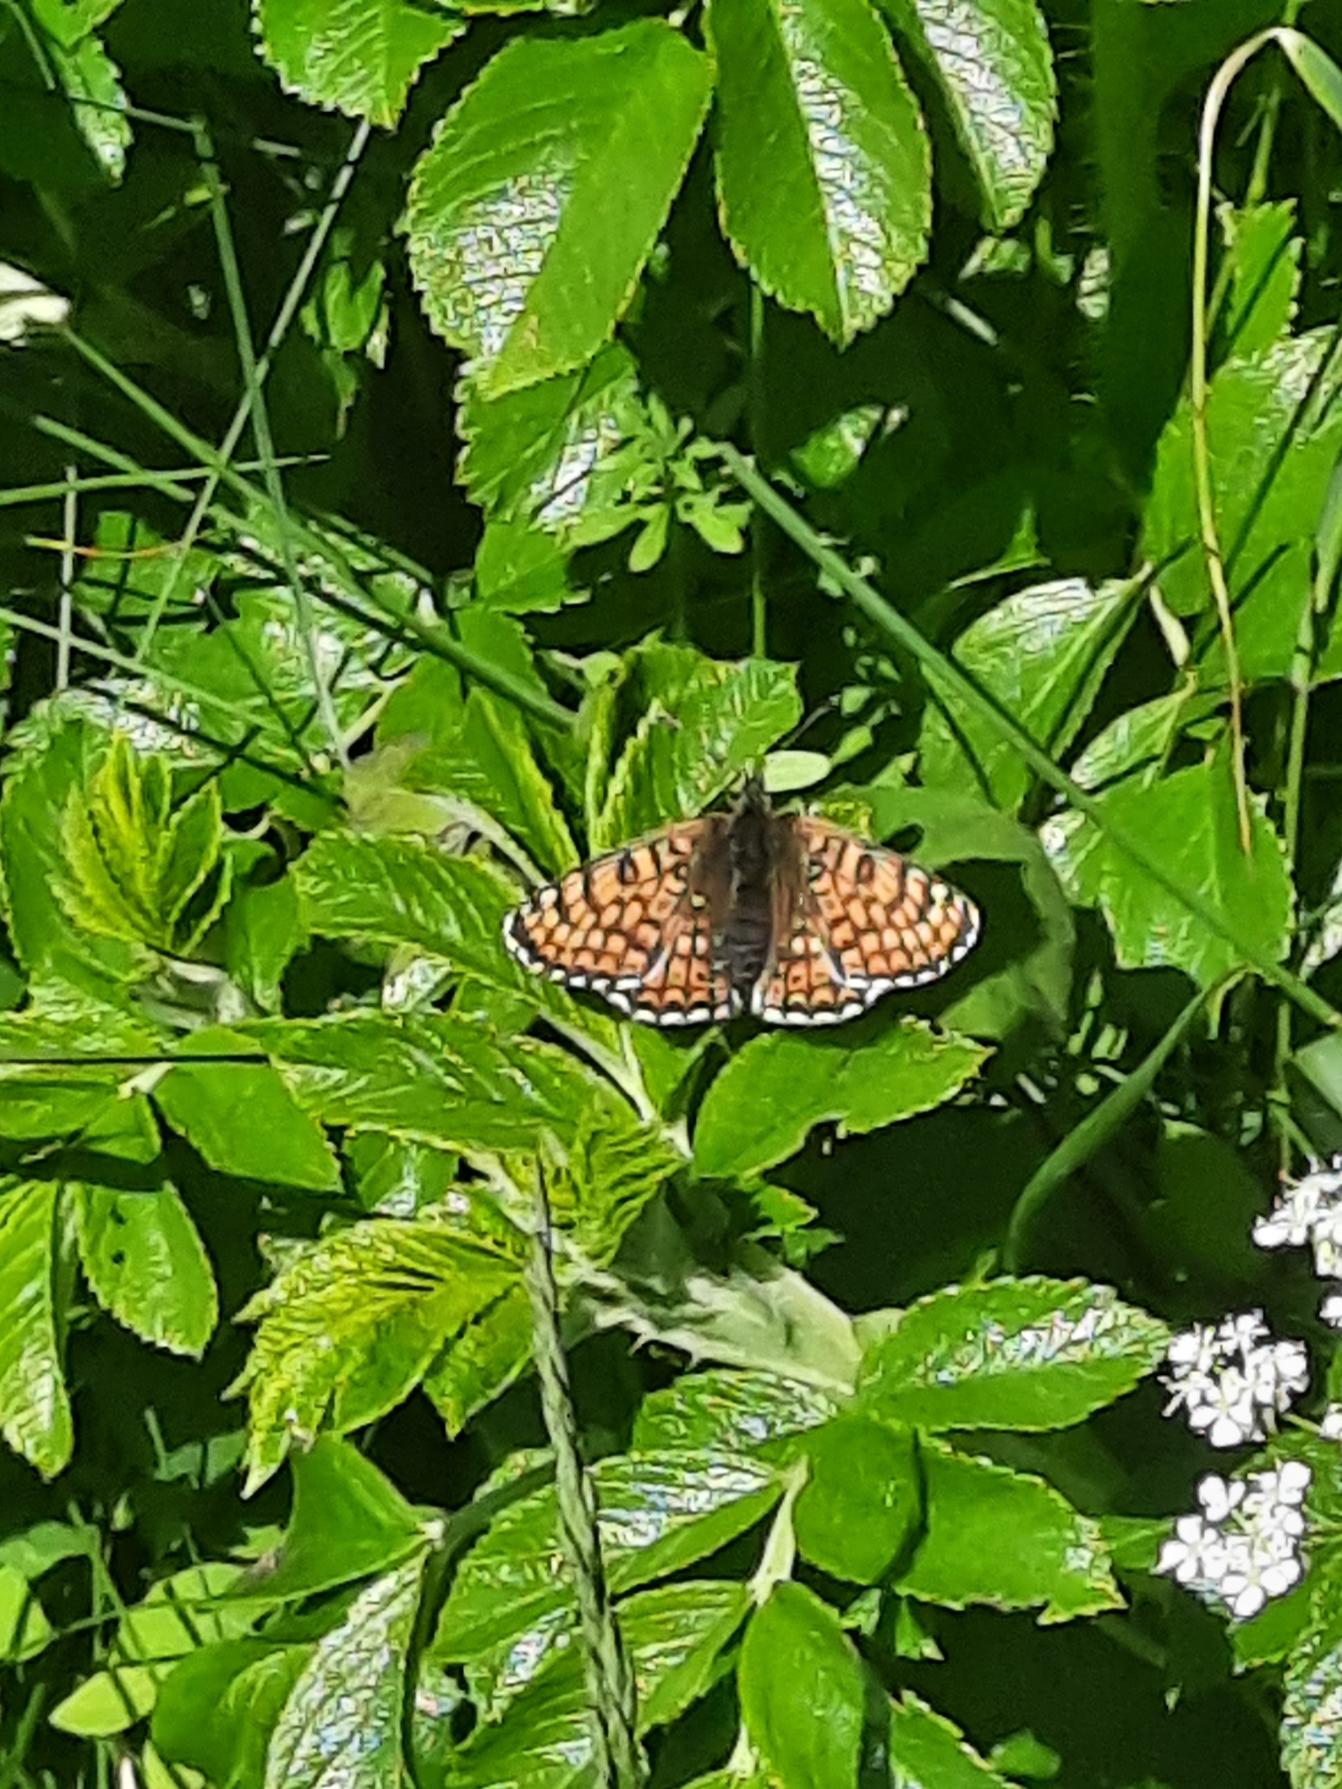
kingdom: Animalia
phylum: Arthropoda
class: Insecta
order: Lepidoptera
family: Nymphalidae
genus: Melitaea
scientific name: Melitaea cinxia
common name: Okkergul pletvinge
